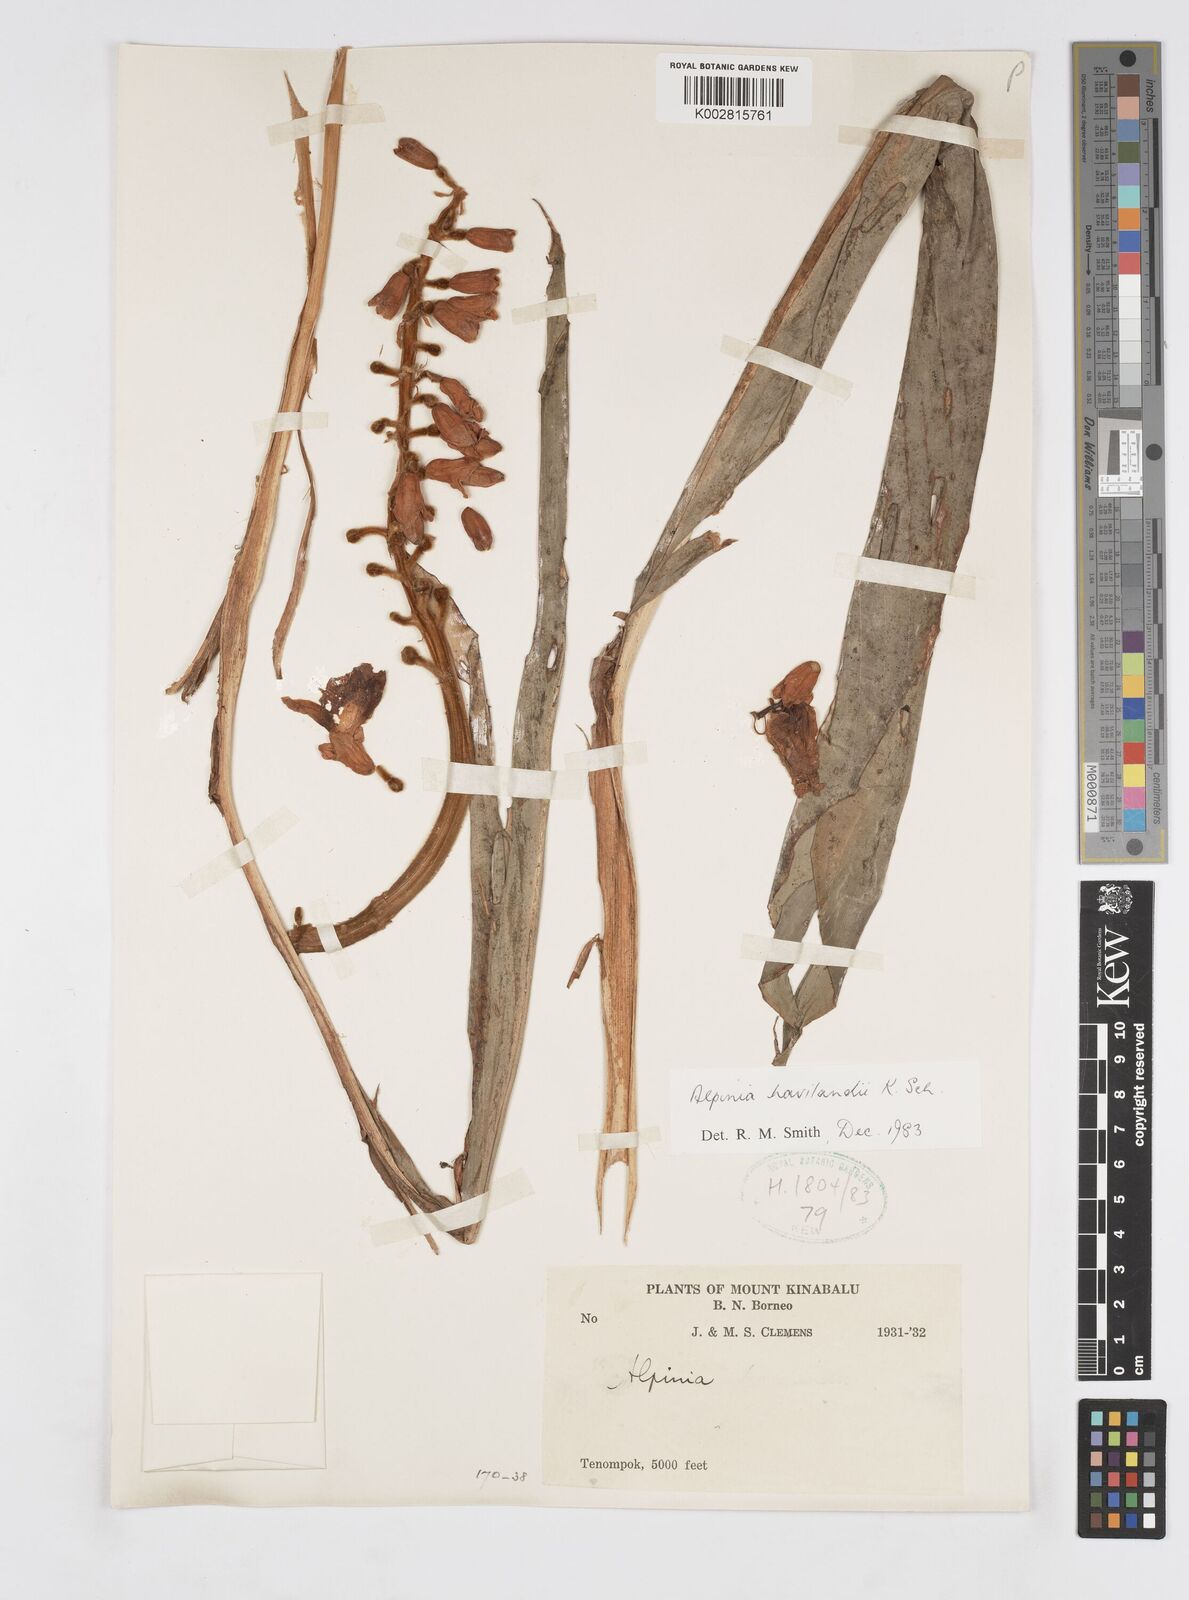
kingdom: Plantae
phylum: Tracheophyta
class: Liliopsida
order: Zingiberales
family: Zingiberaceae
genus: Alpinia
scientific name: Alpinia havilandii
